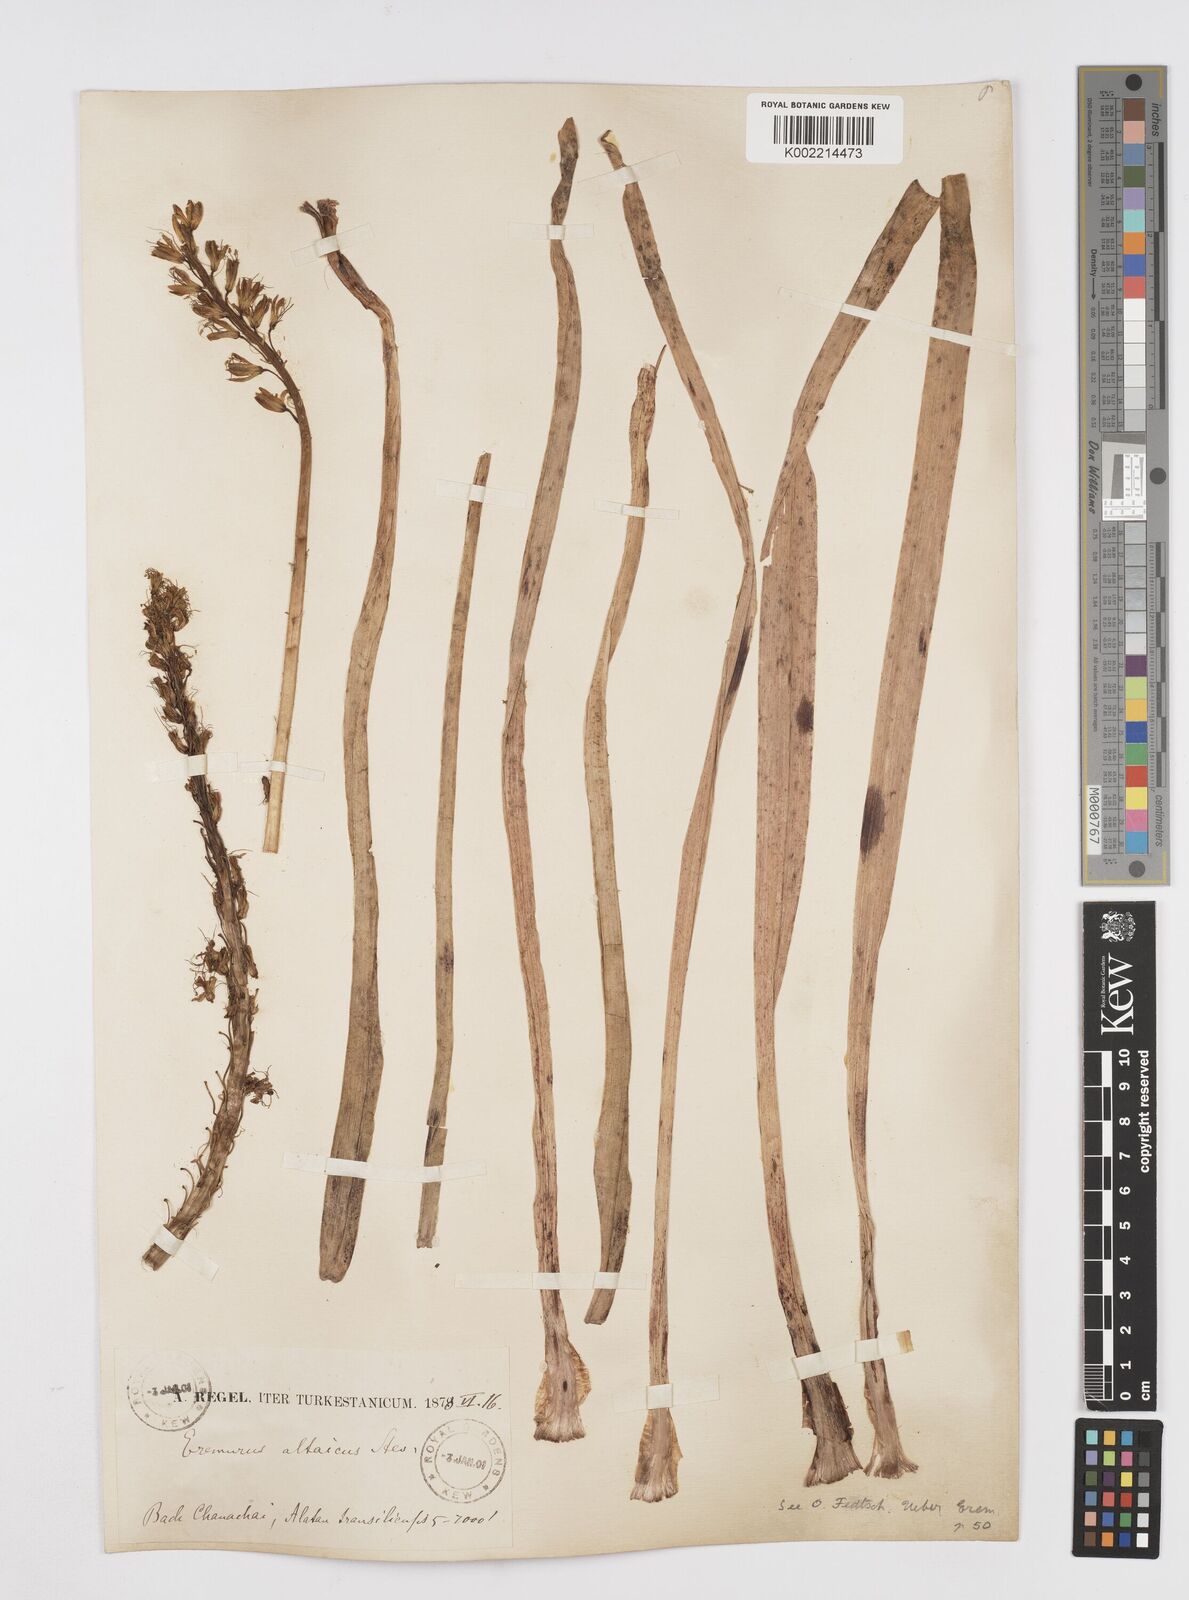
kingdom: Plantae
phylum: Tracheophyta
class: Liliopsida
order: Asparagales
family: Asphodelaceae
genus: Eremurus
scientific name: Eremurus altaicus
